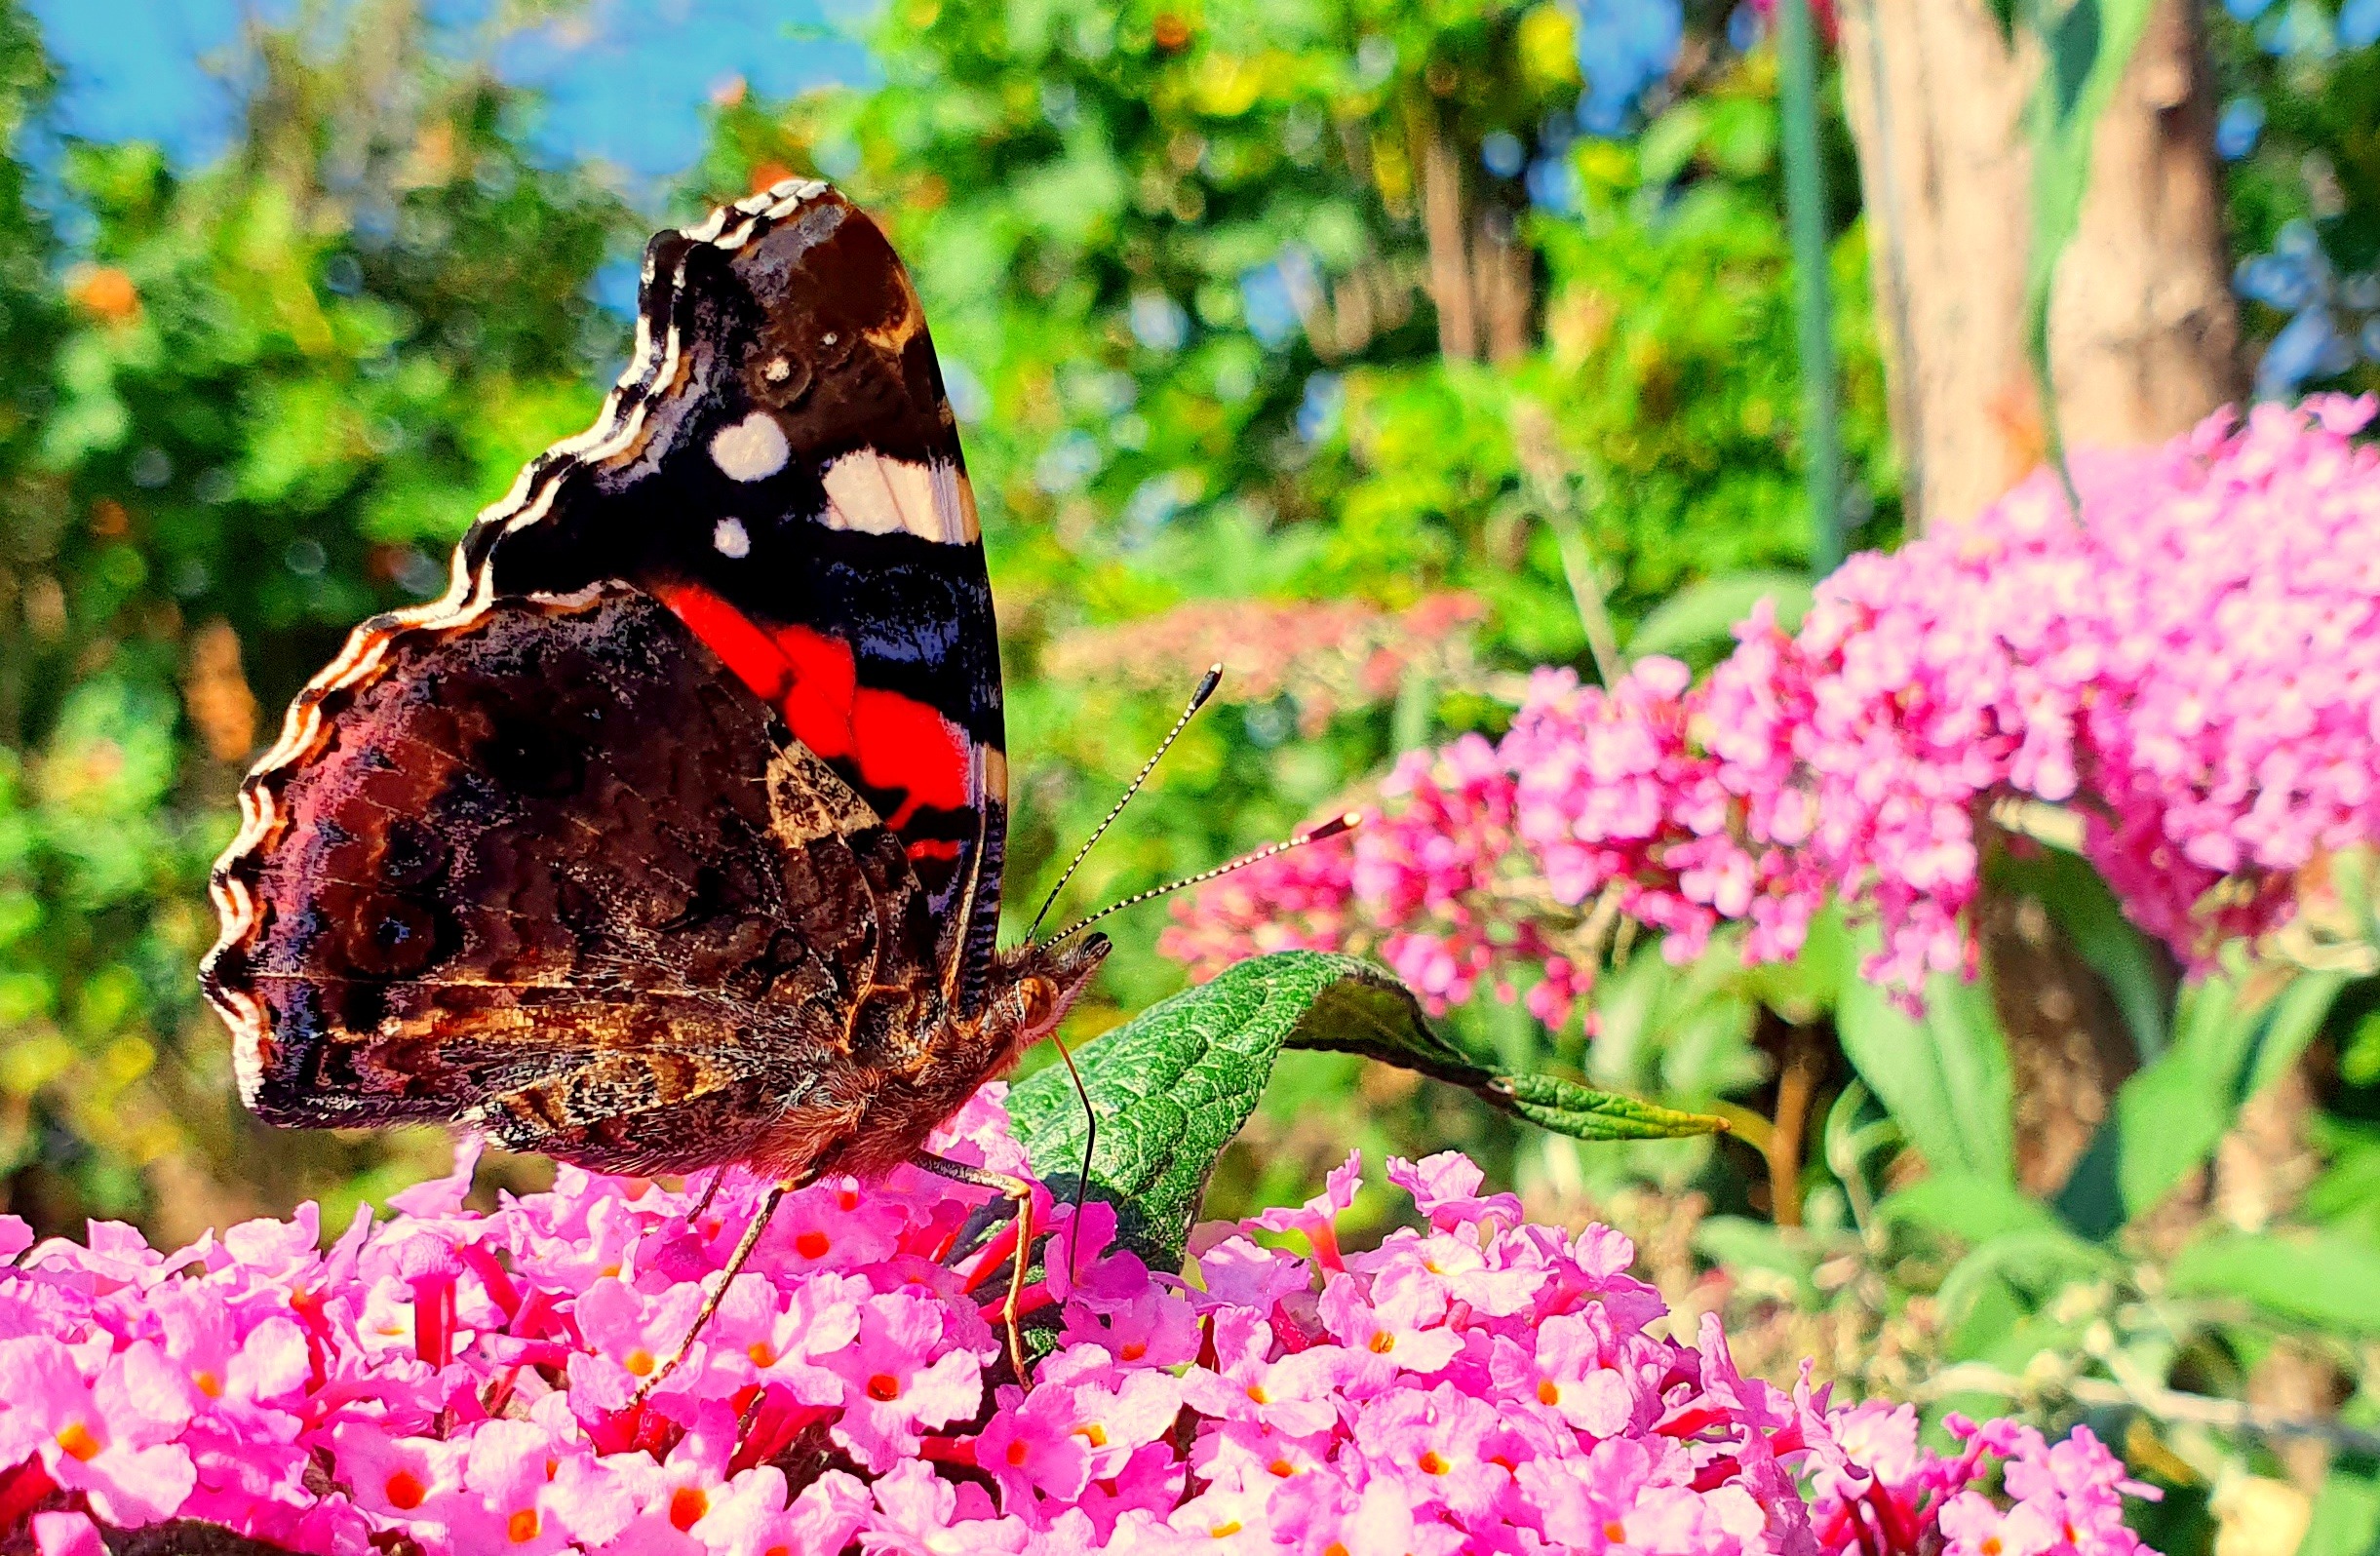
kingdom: Animalia
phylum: Arthropoda
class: Insecta
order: Lepidoptera
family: Nymphalidae
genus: Vanessa
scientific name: Vanessa atalanta
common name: Admiral
